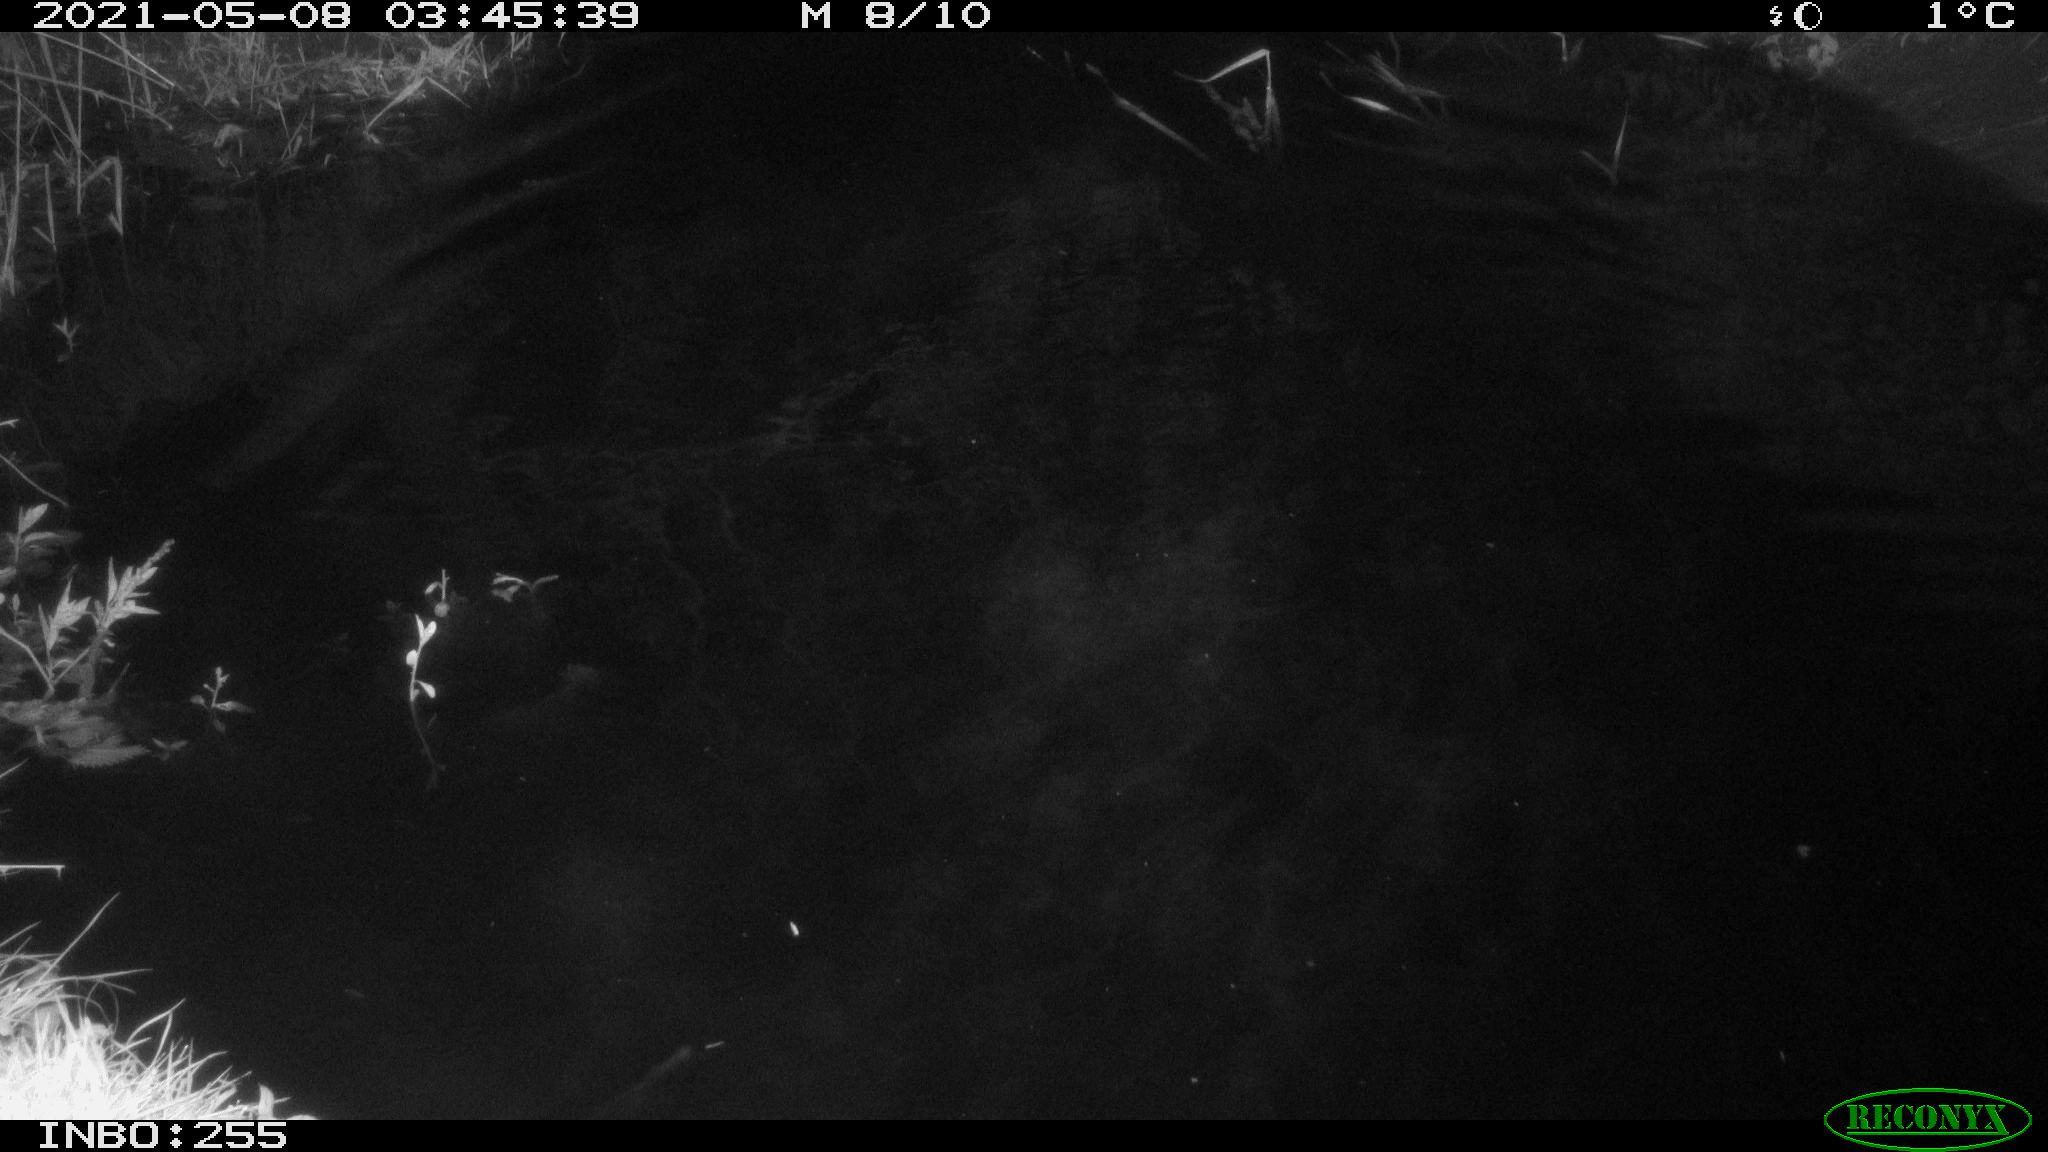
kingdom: Animalia
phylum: Chordata
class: Aves
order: Anseriformes
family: Anatidae
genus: Anas
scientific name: Anas platyrhynchos
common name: Mallard
